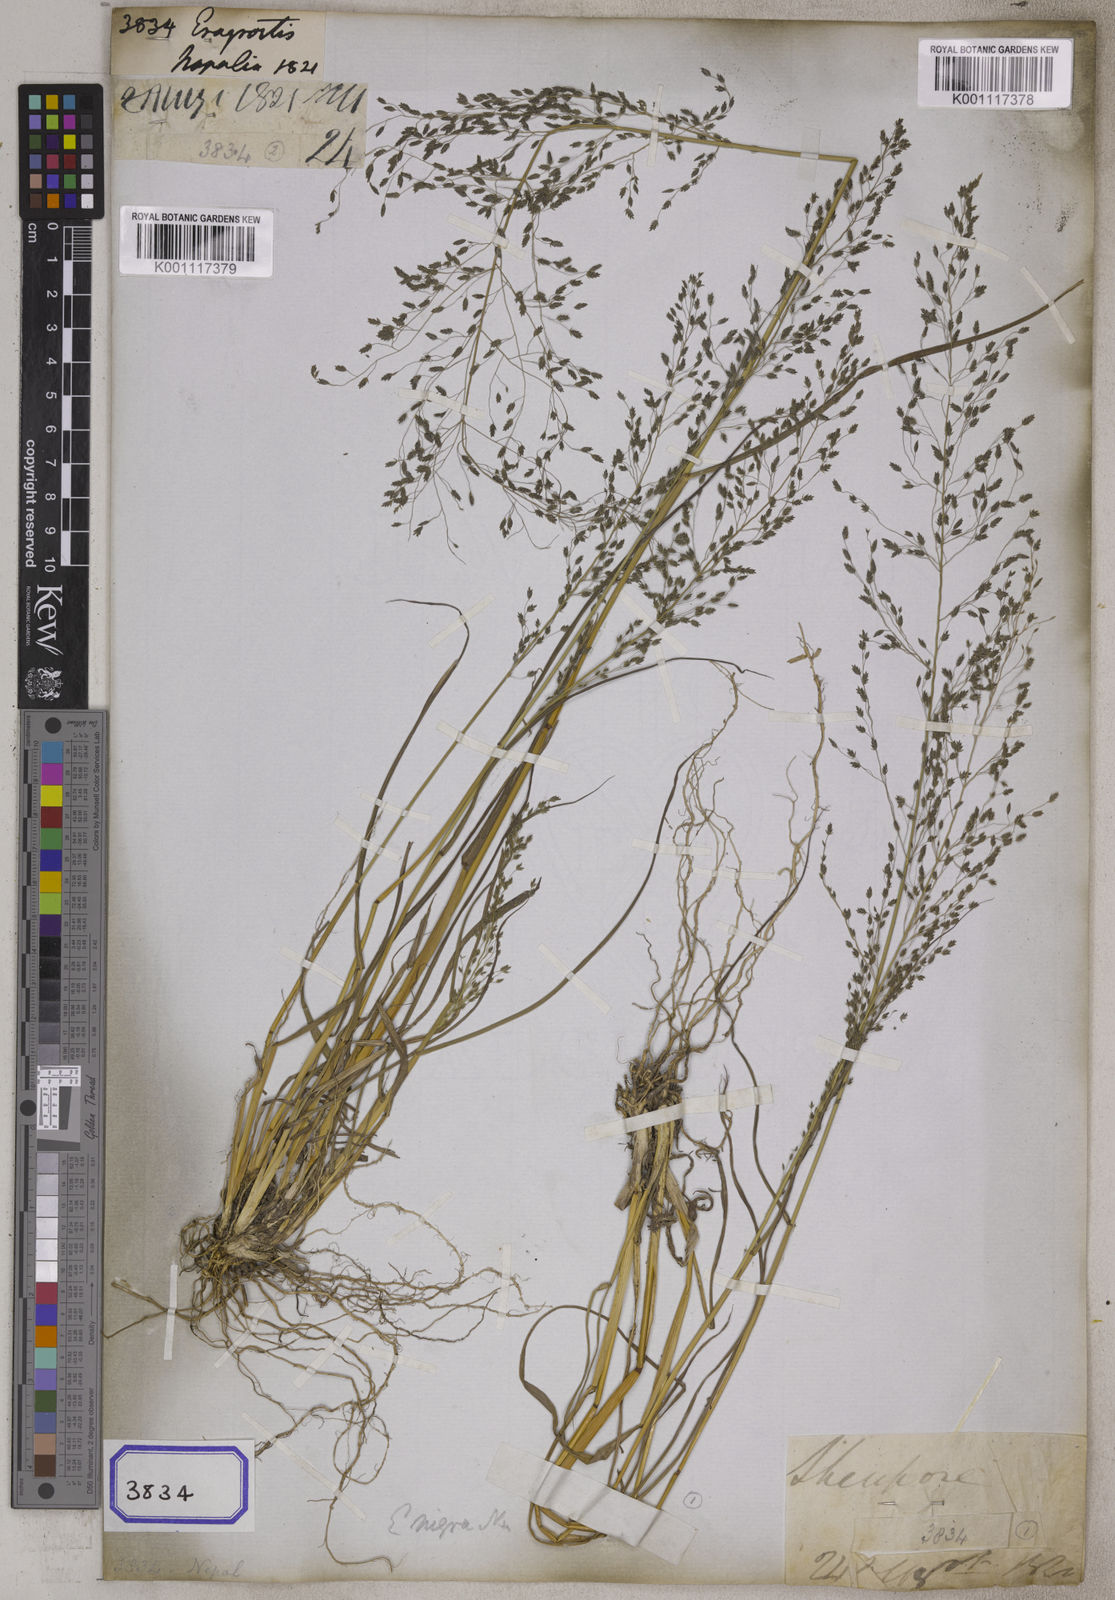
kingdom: Plantae
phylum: Tracheophyta
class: Liliopsida
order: Poales
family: Poaceae
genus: Eragrostis
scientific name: Eragrostis
